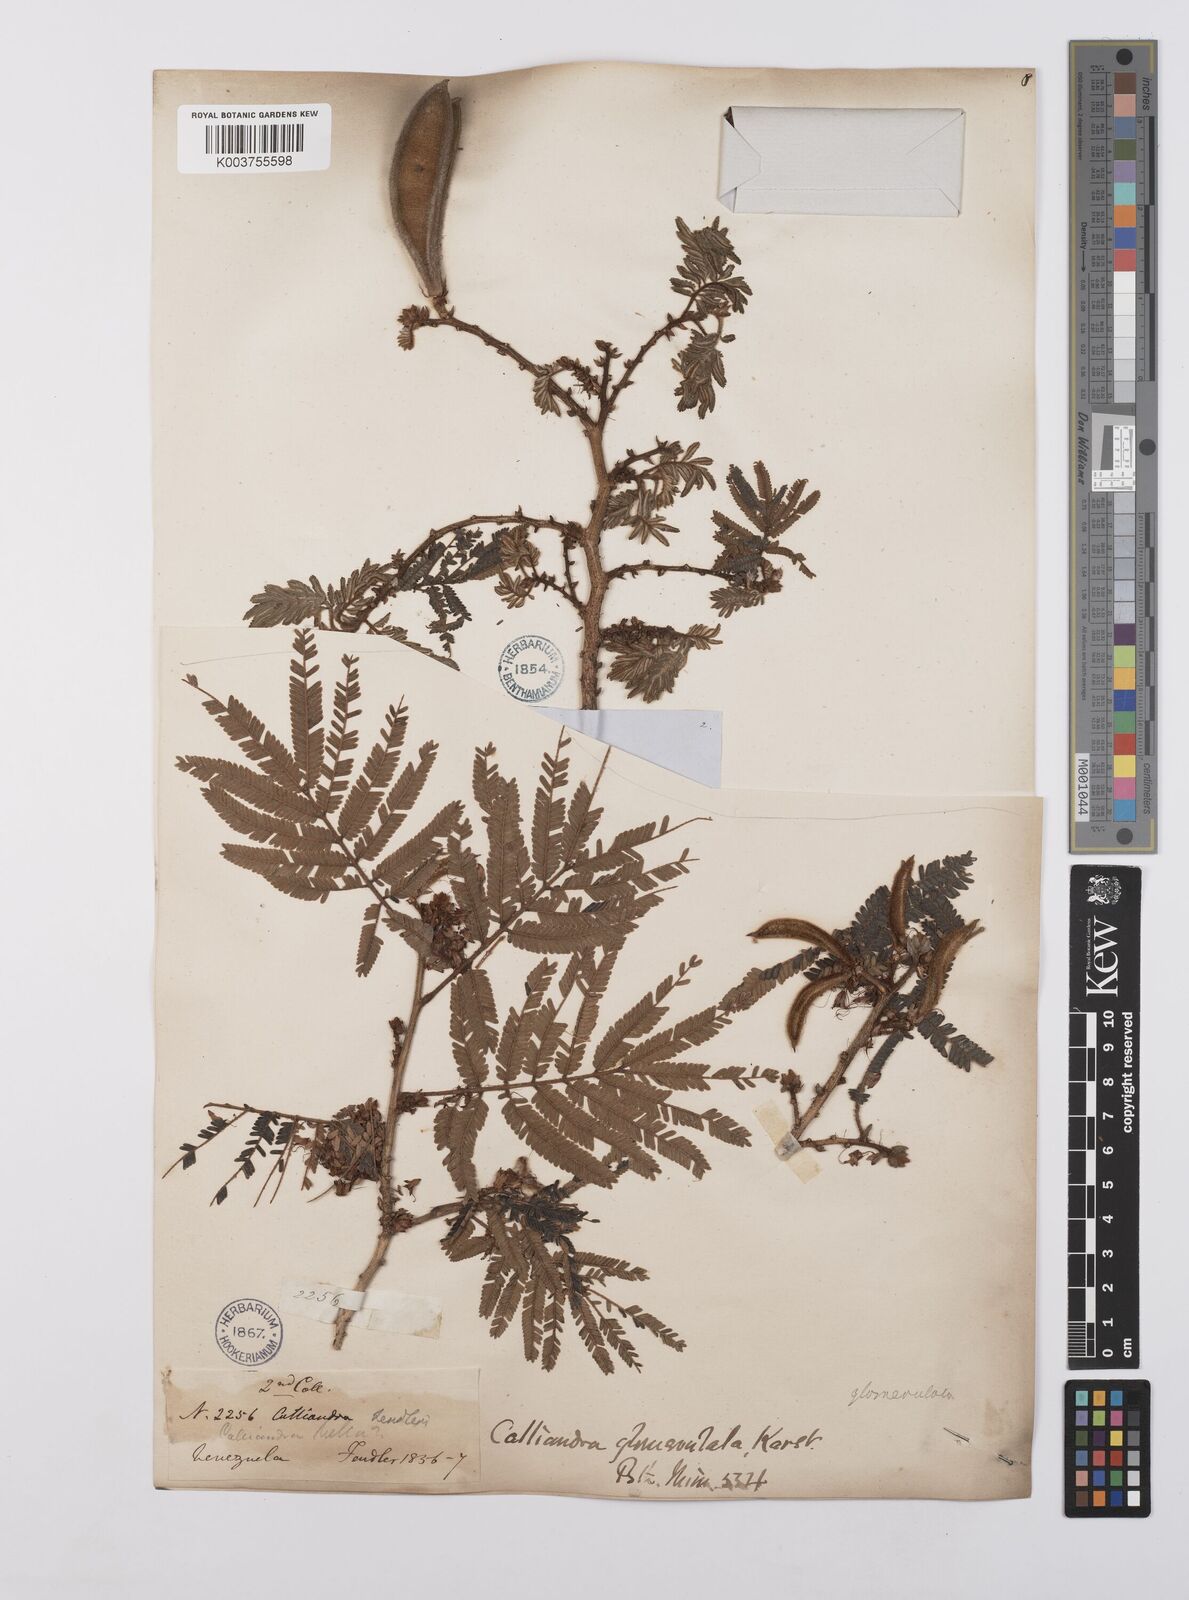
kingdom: Plantae
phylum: Tracheophyta
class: Magnoliopsida
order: Fabales
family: Fabaceae
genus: Calliandra
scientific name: Calliandra glomerulata
